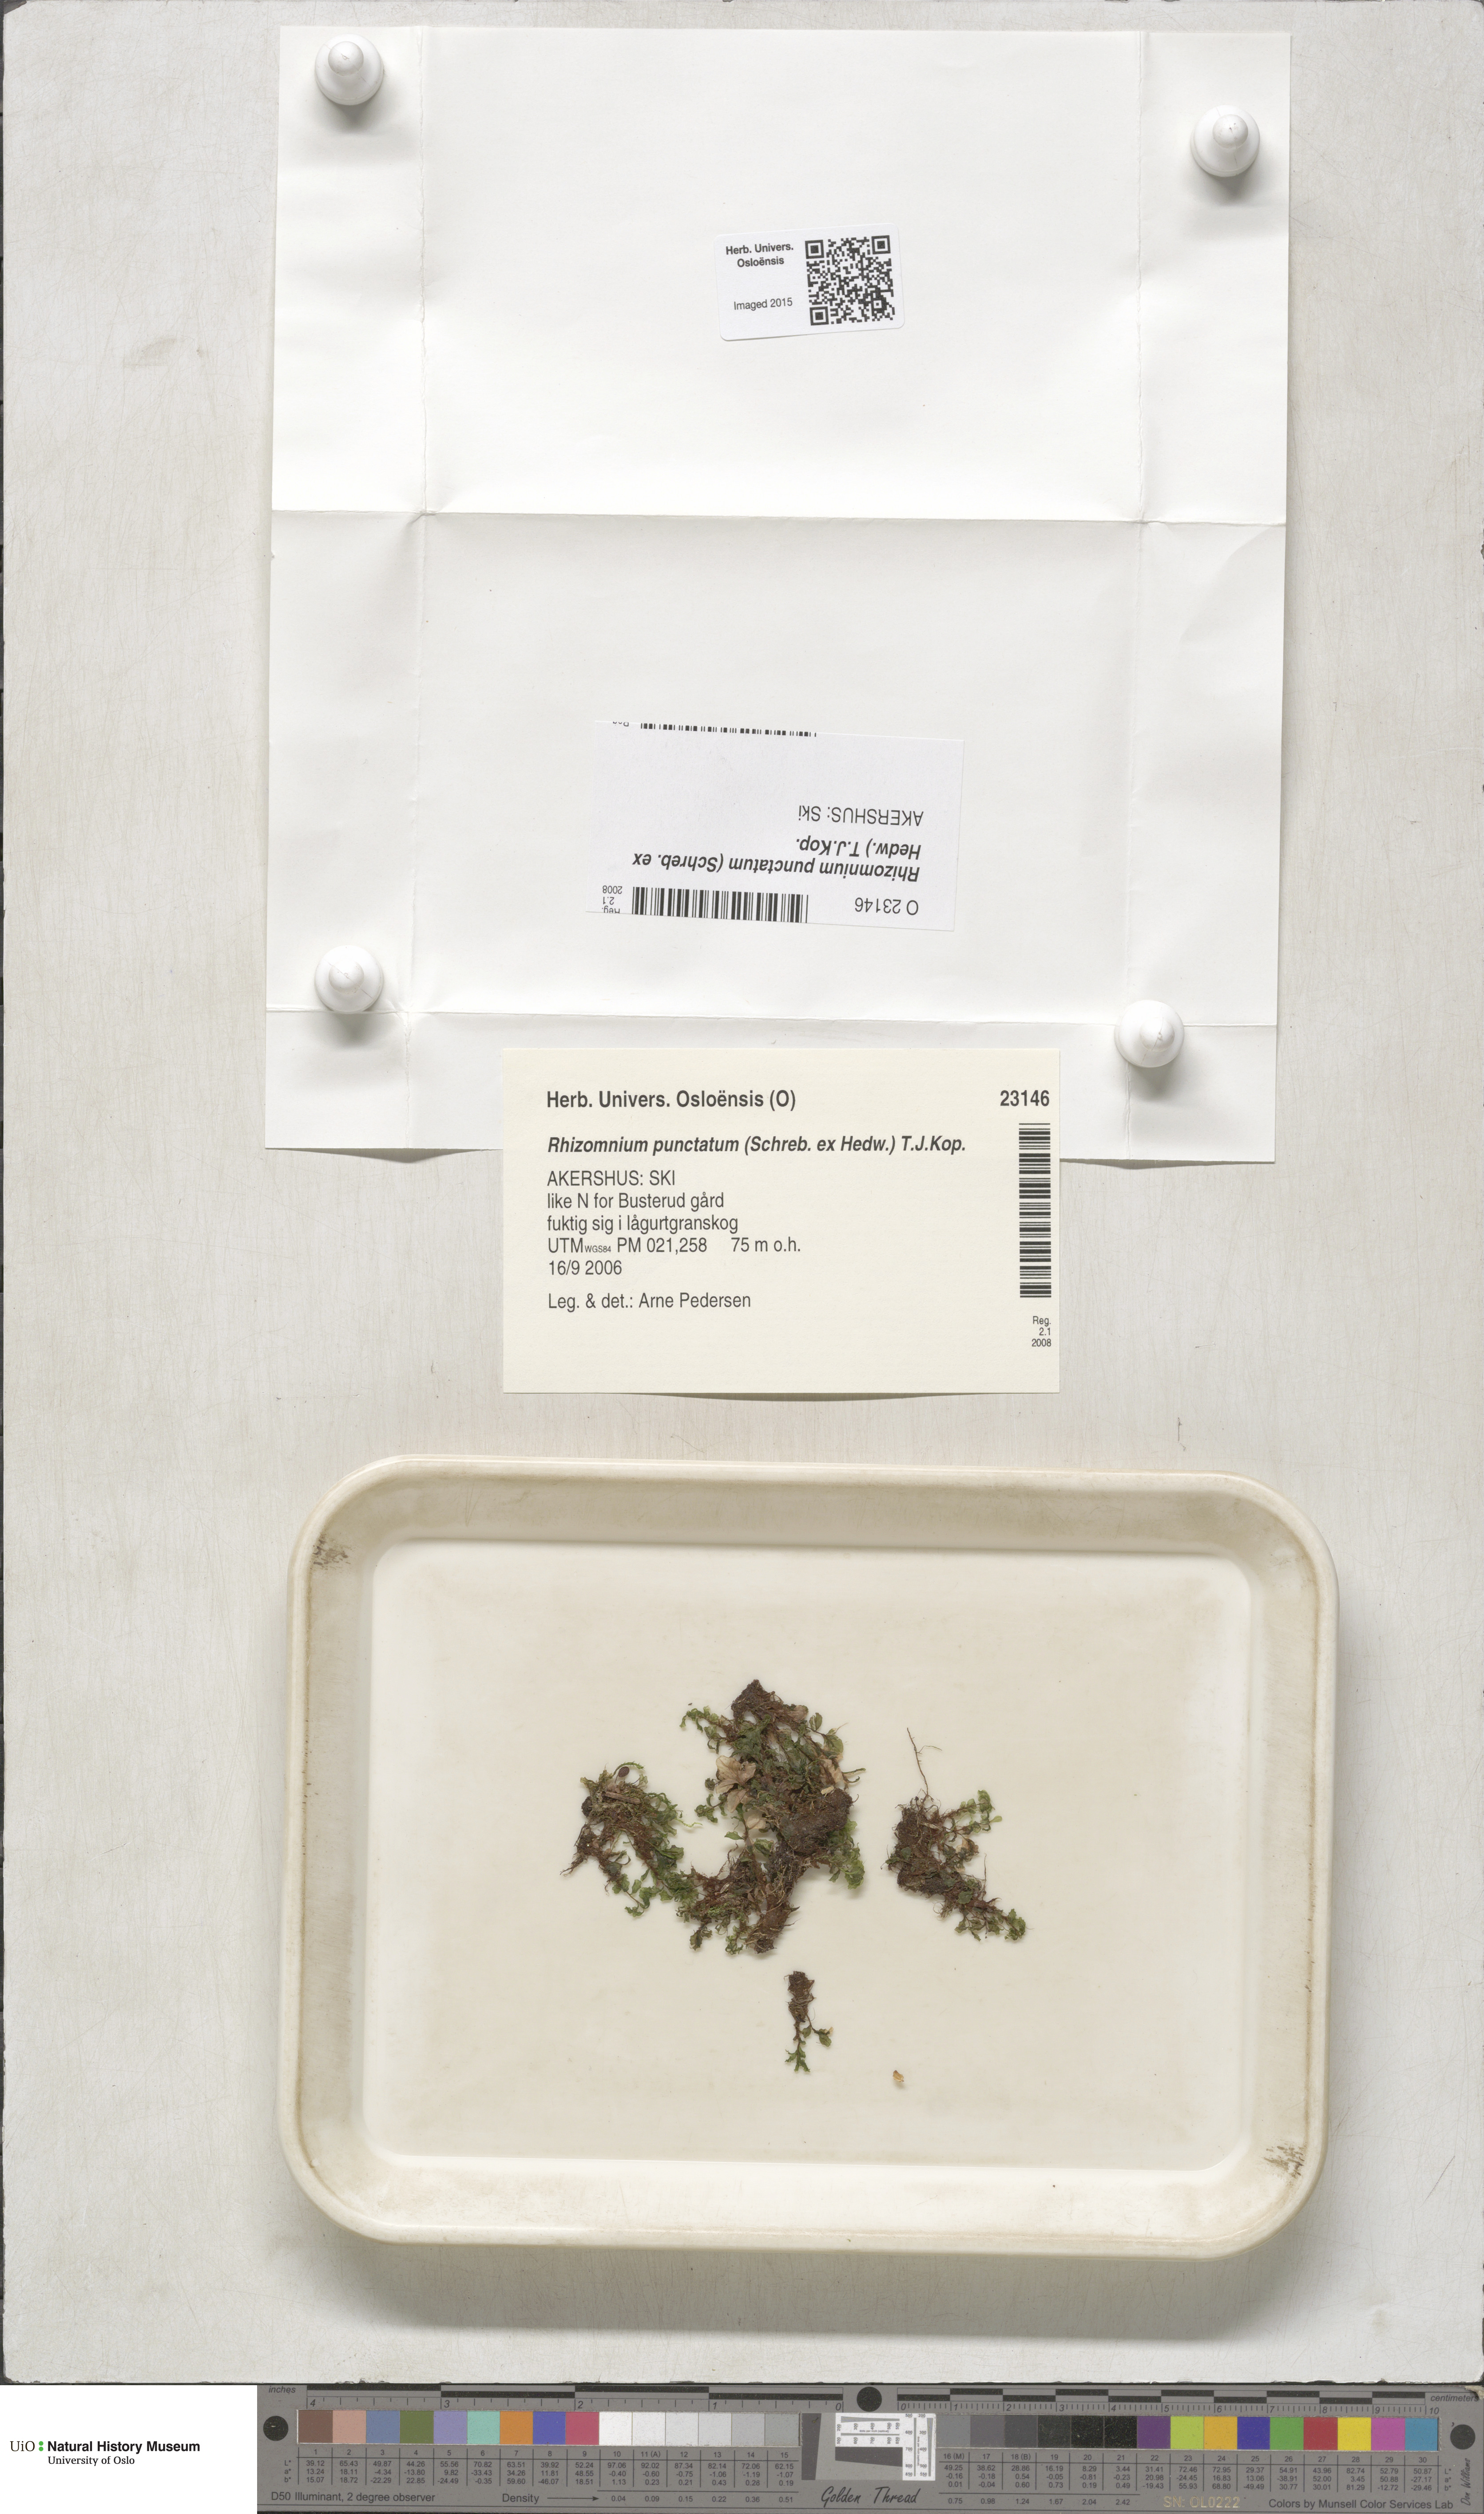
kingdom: Plantae
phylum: Bryophyta
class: Bryopsida
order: Bryales
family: Mniaceae
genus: Rhizomnium
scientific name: Rhizomnium punctatum
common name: Dotted leafy moss
